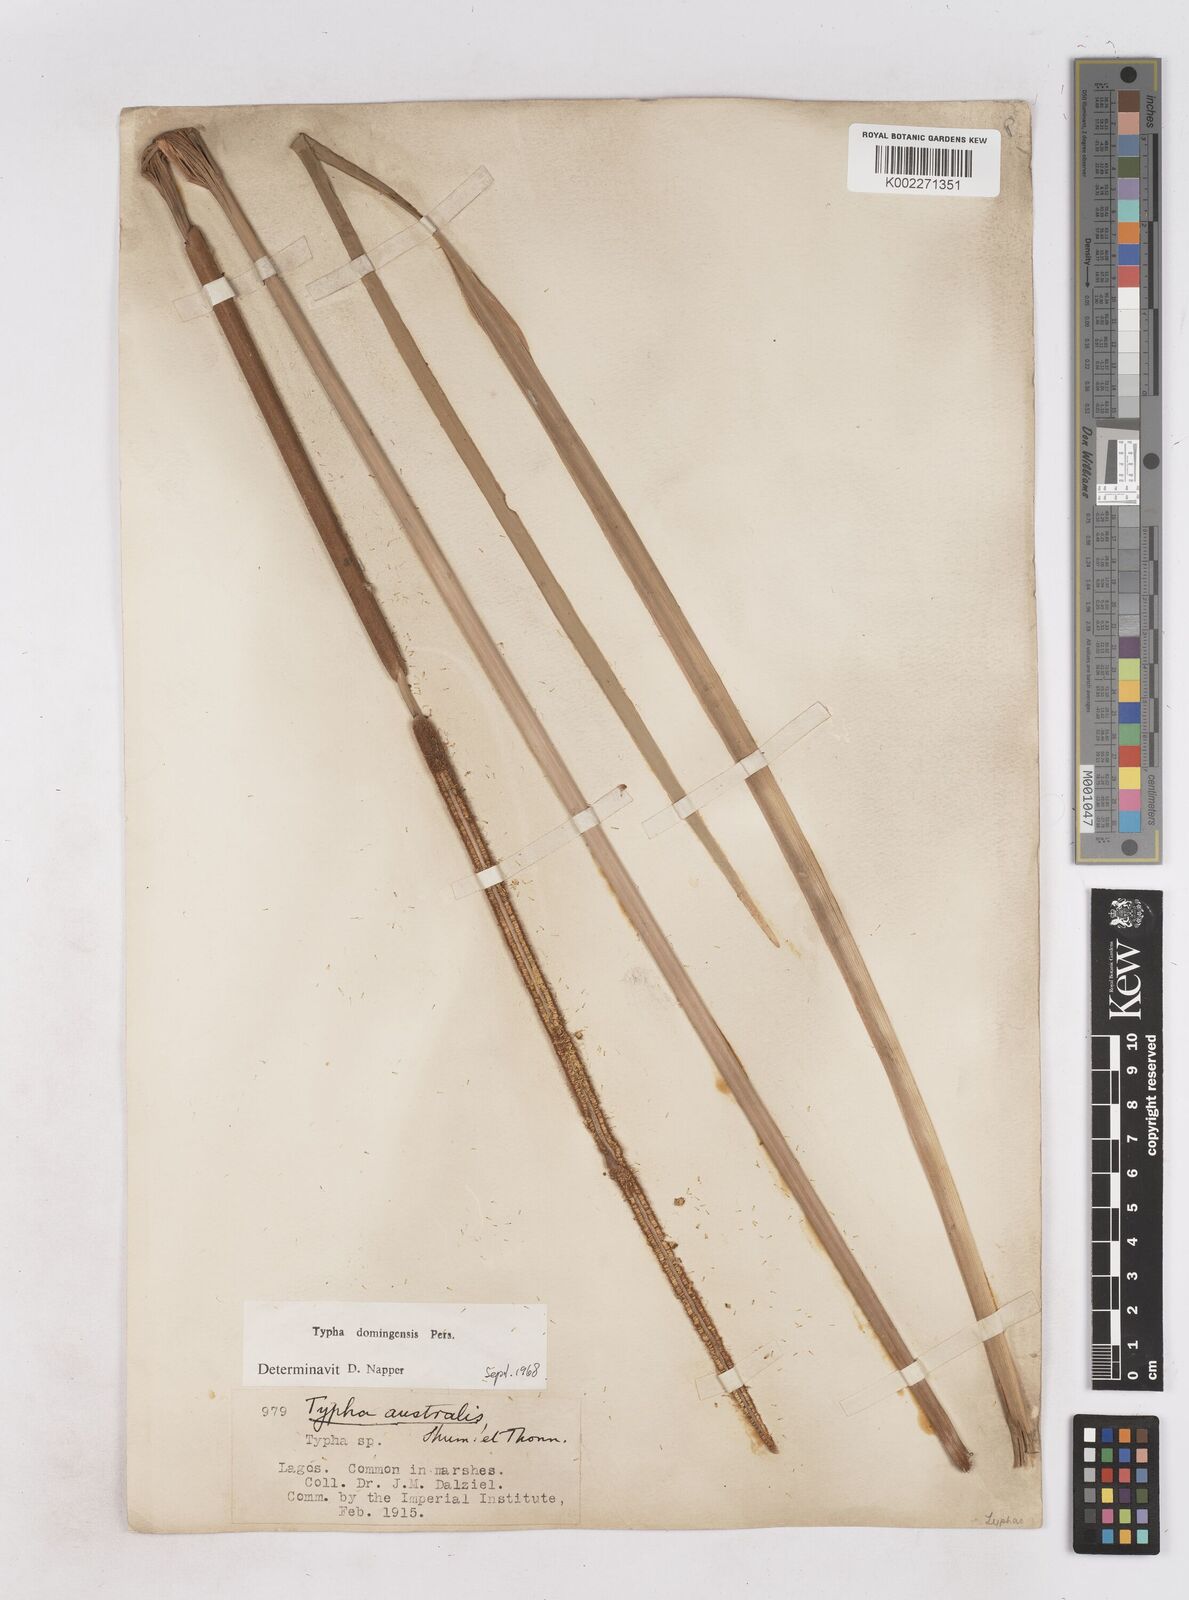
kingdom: Plantae
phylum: Tracheophyta
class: Liliopsida
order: Poales
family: Typhaceae
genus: Typha
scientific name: Typha domingensis
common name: Southern cattail
